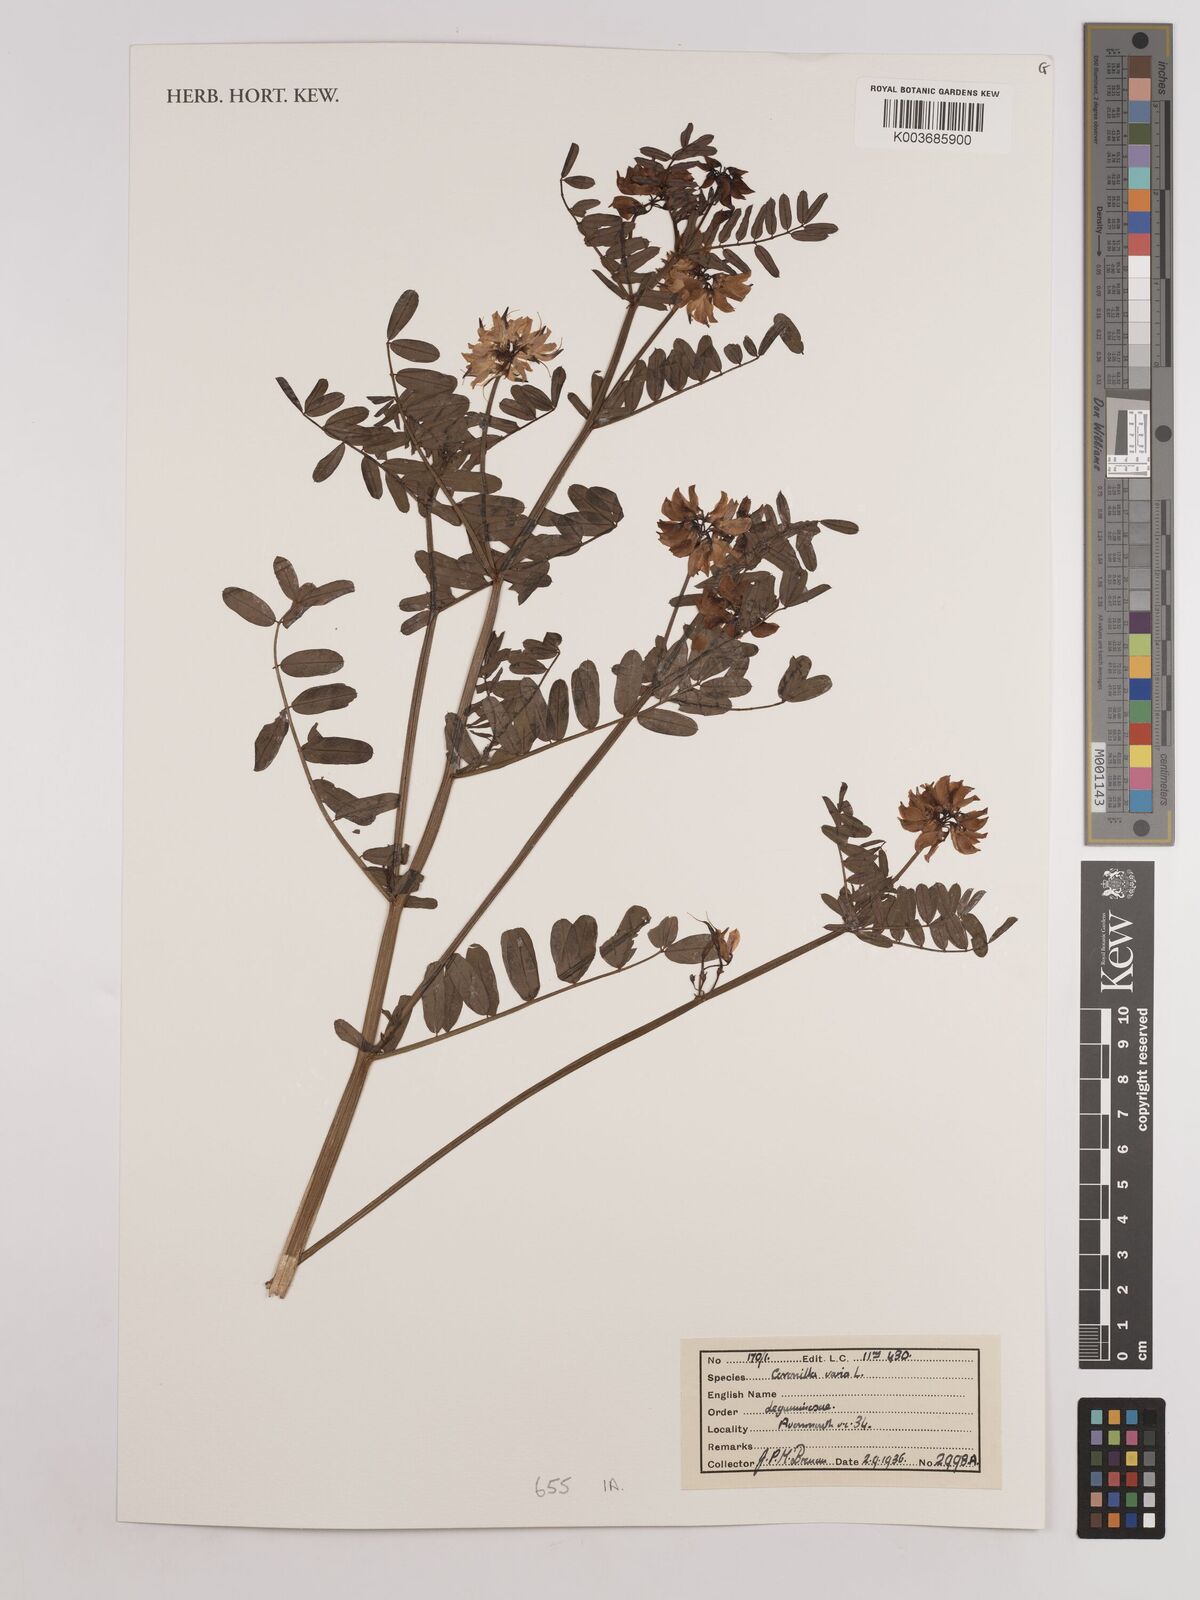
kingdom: Plantae
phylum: Tracheophyta
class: Magnoliopsida
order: Fabales
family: Fabaceae
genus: Coronilla
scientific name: Coronilla varia
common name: Crownvetch
